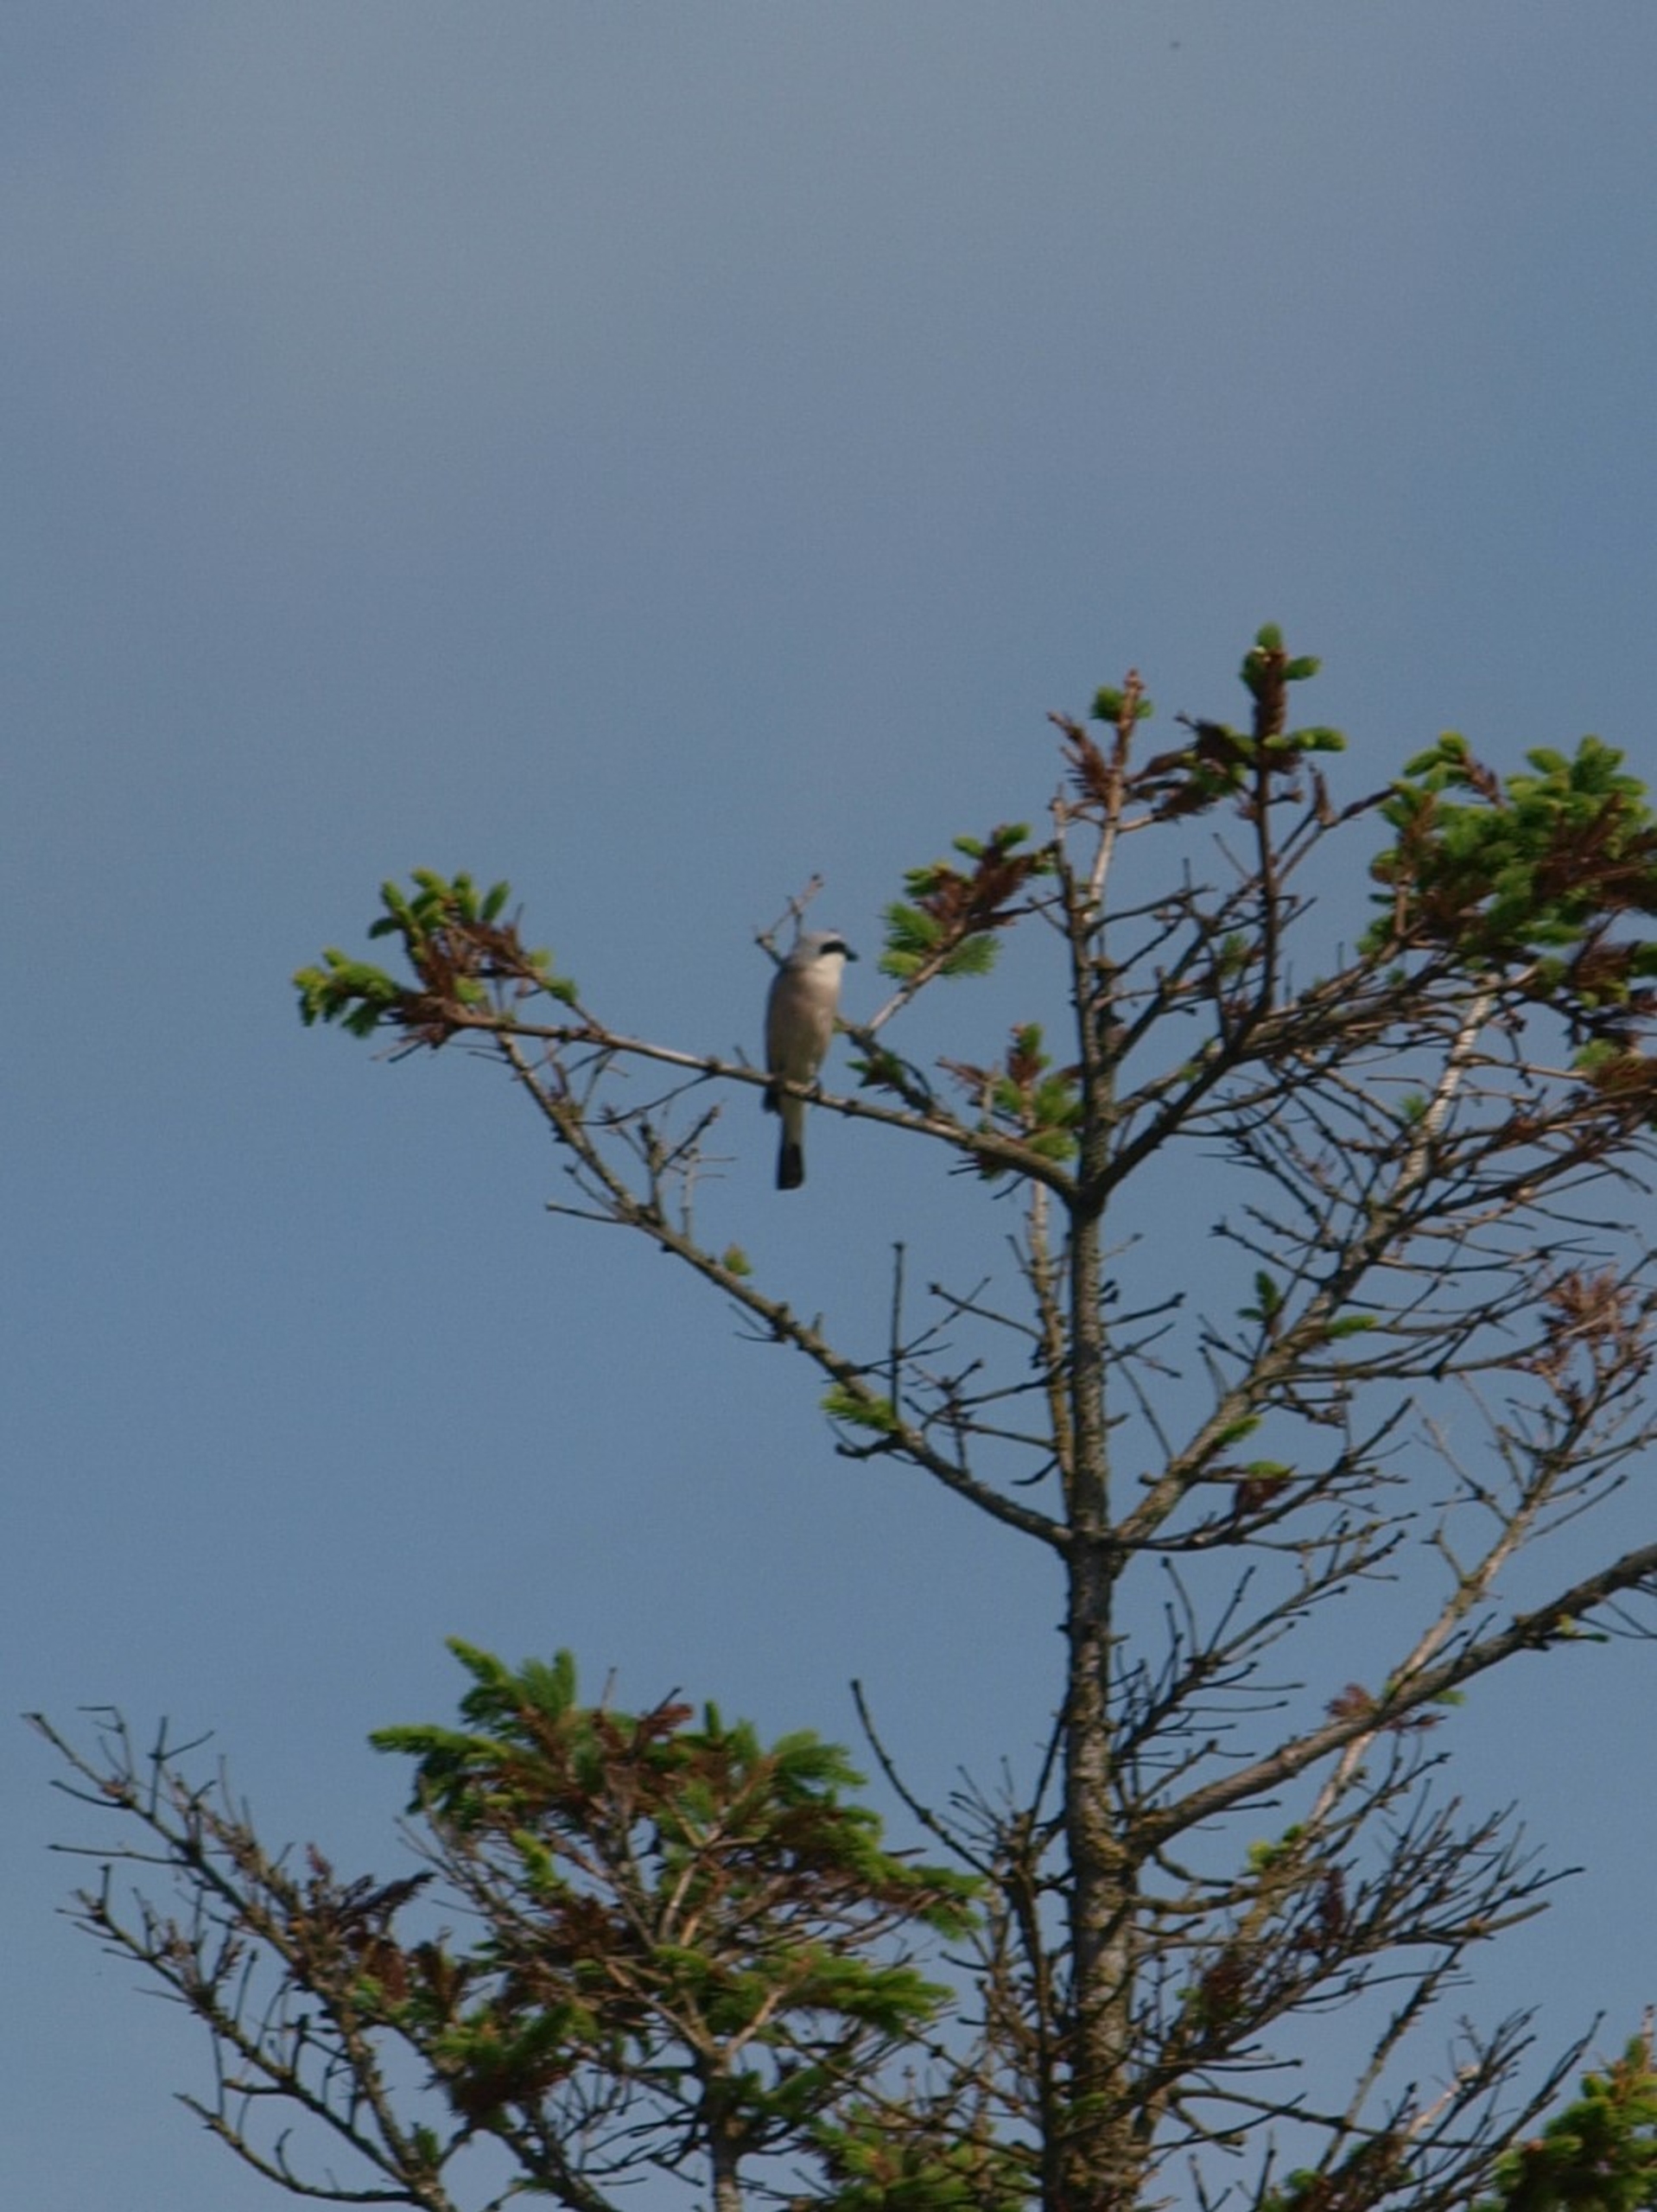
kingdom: Animalia
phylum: Chordata
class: Aves
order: Passeriformes
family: Laniidae
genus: Lanius
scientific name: Lanius collurio
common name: Rødrygget tornskade
